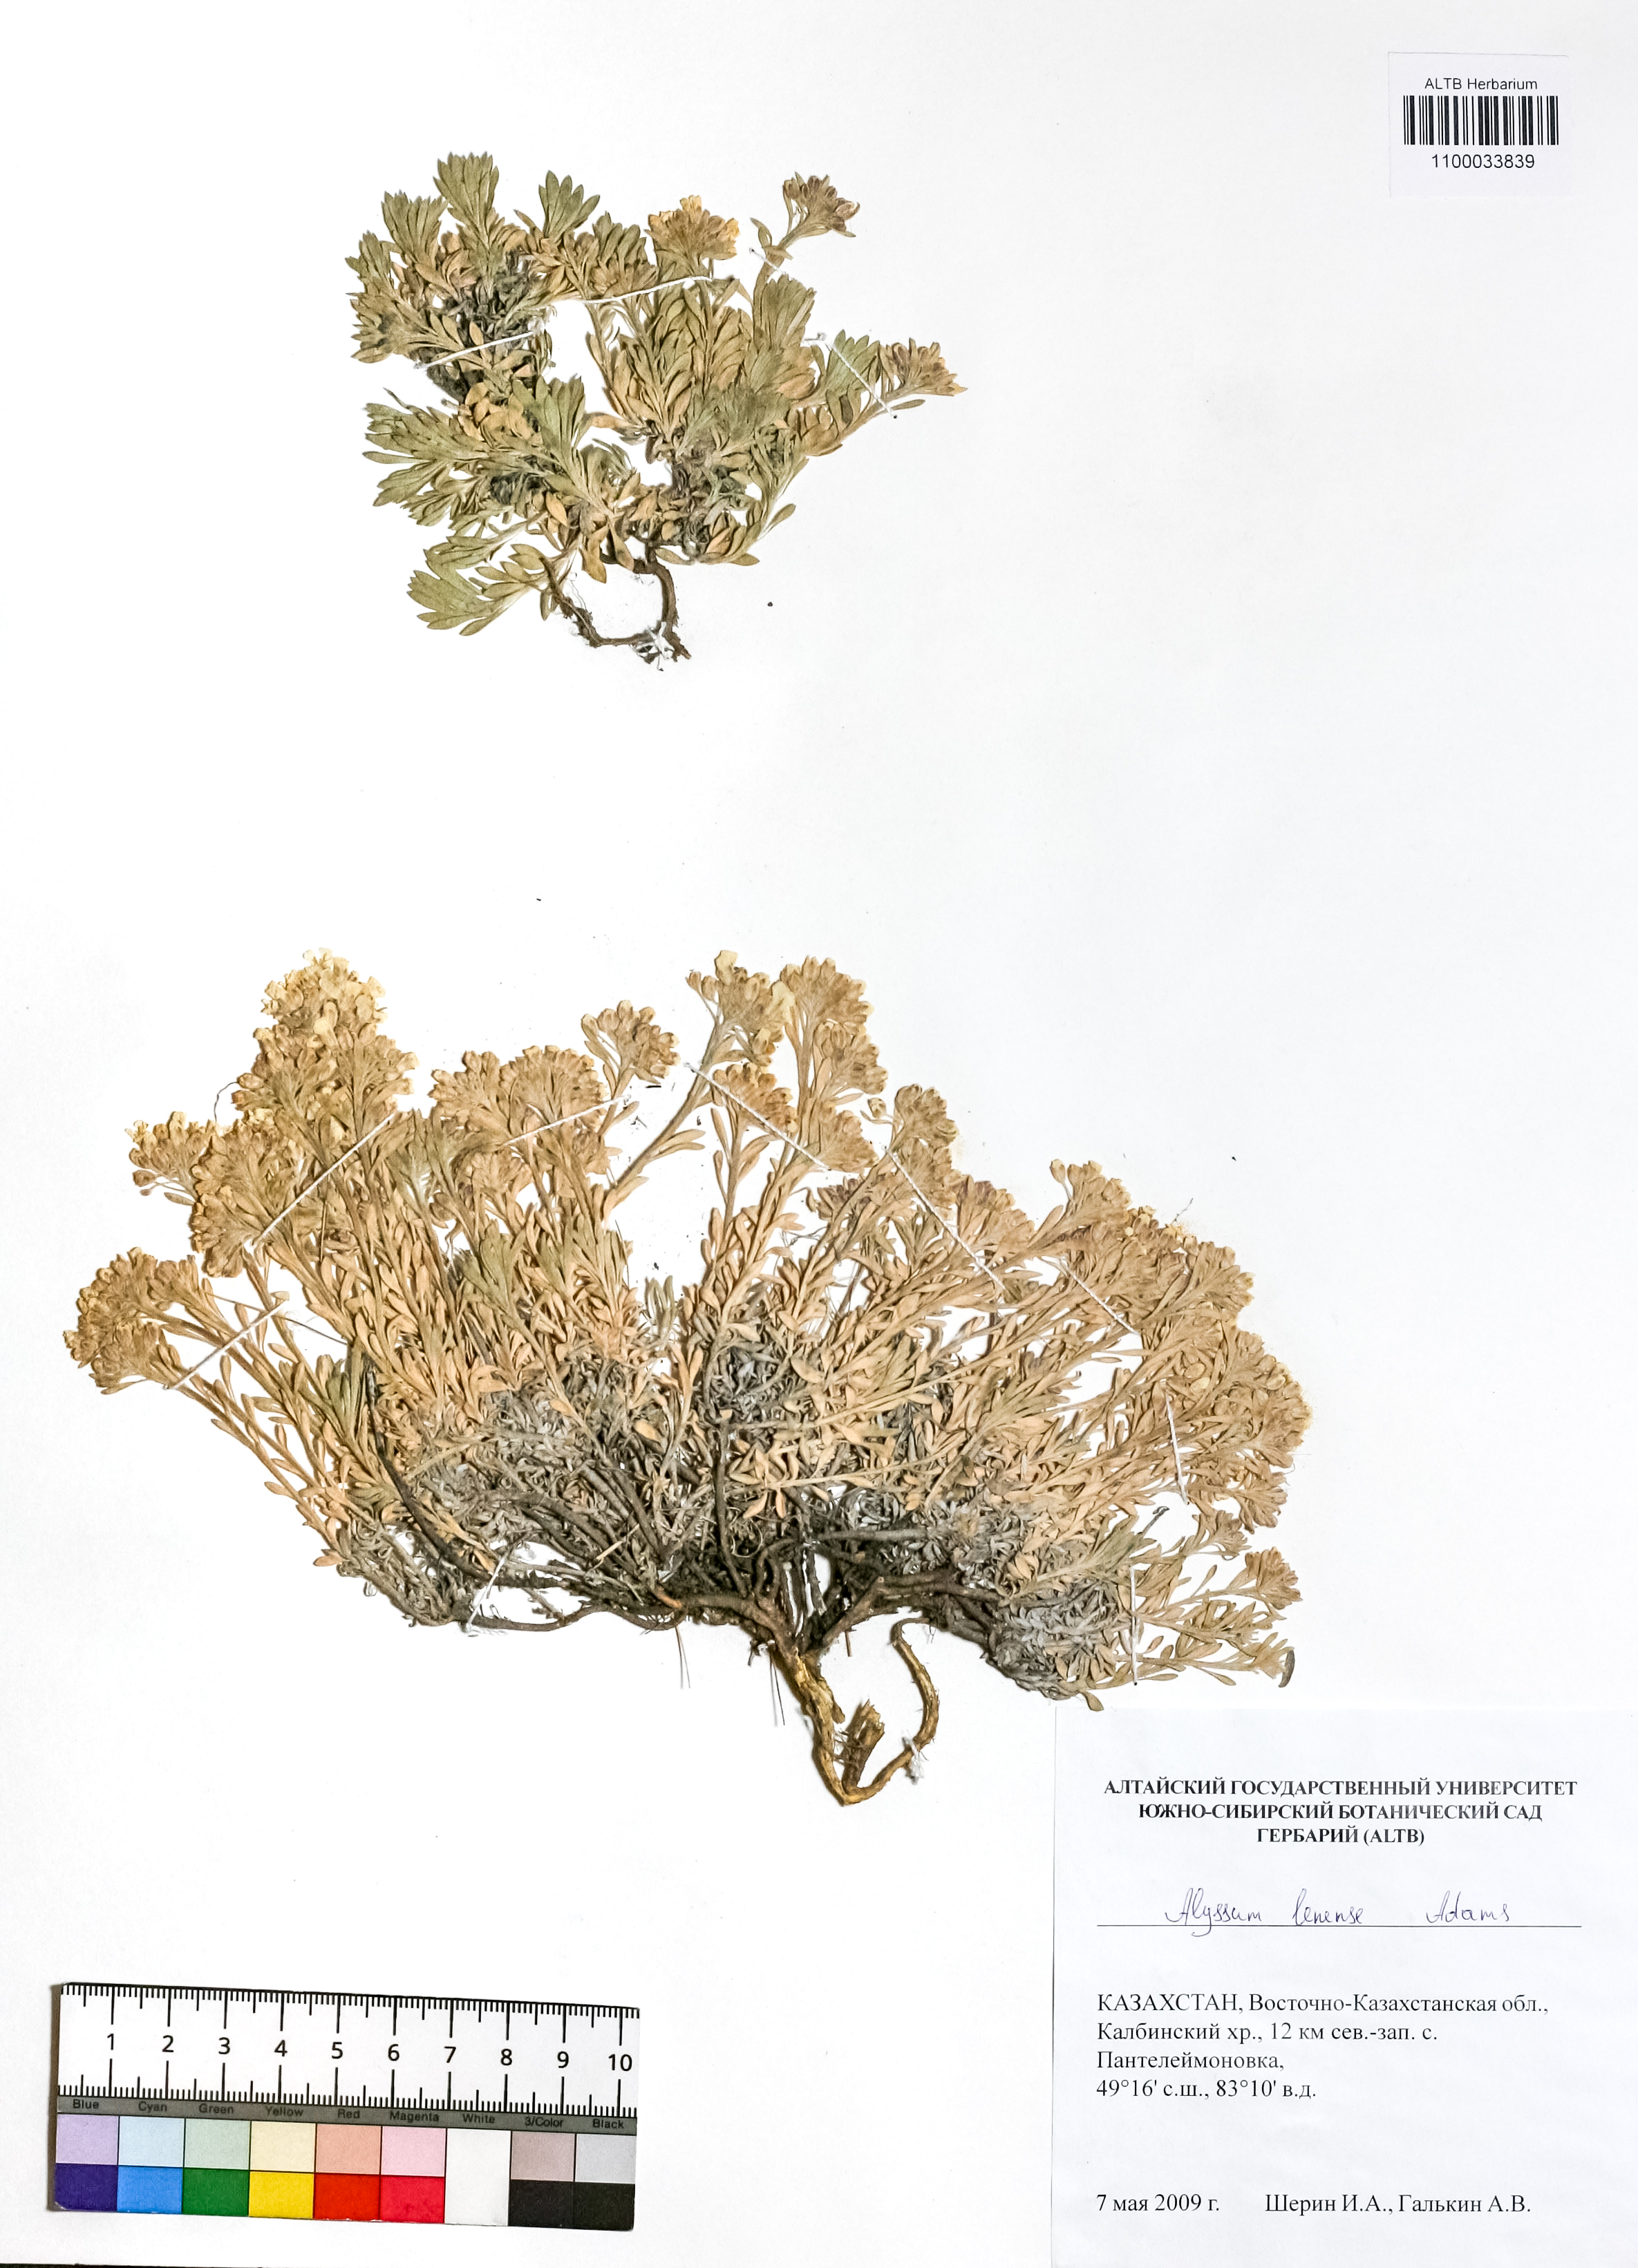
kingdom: Plantae
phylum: Tracheophyta
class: Magnoliopsida
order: Brassicales
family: Brassicaceae
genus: Alyssum
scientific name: Alyssum lenense
